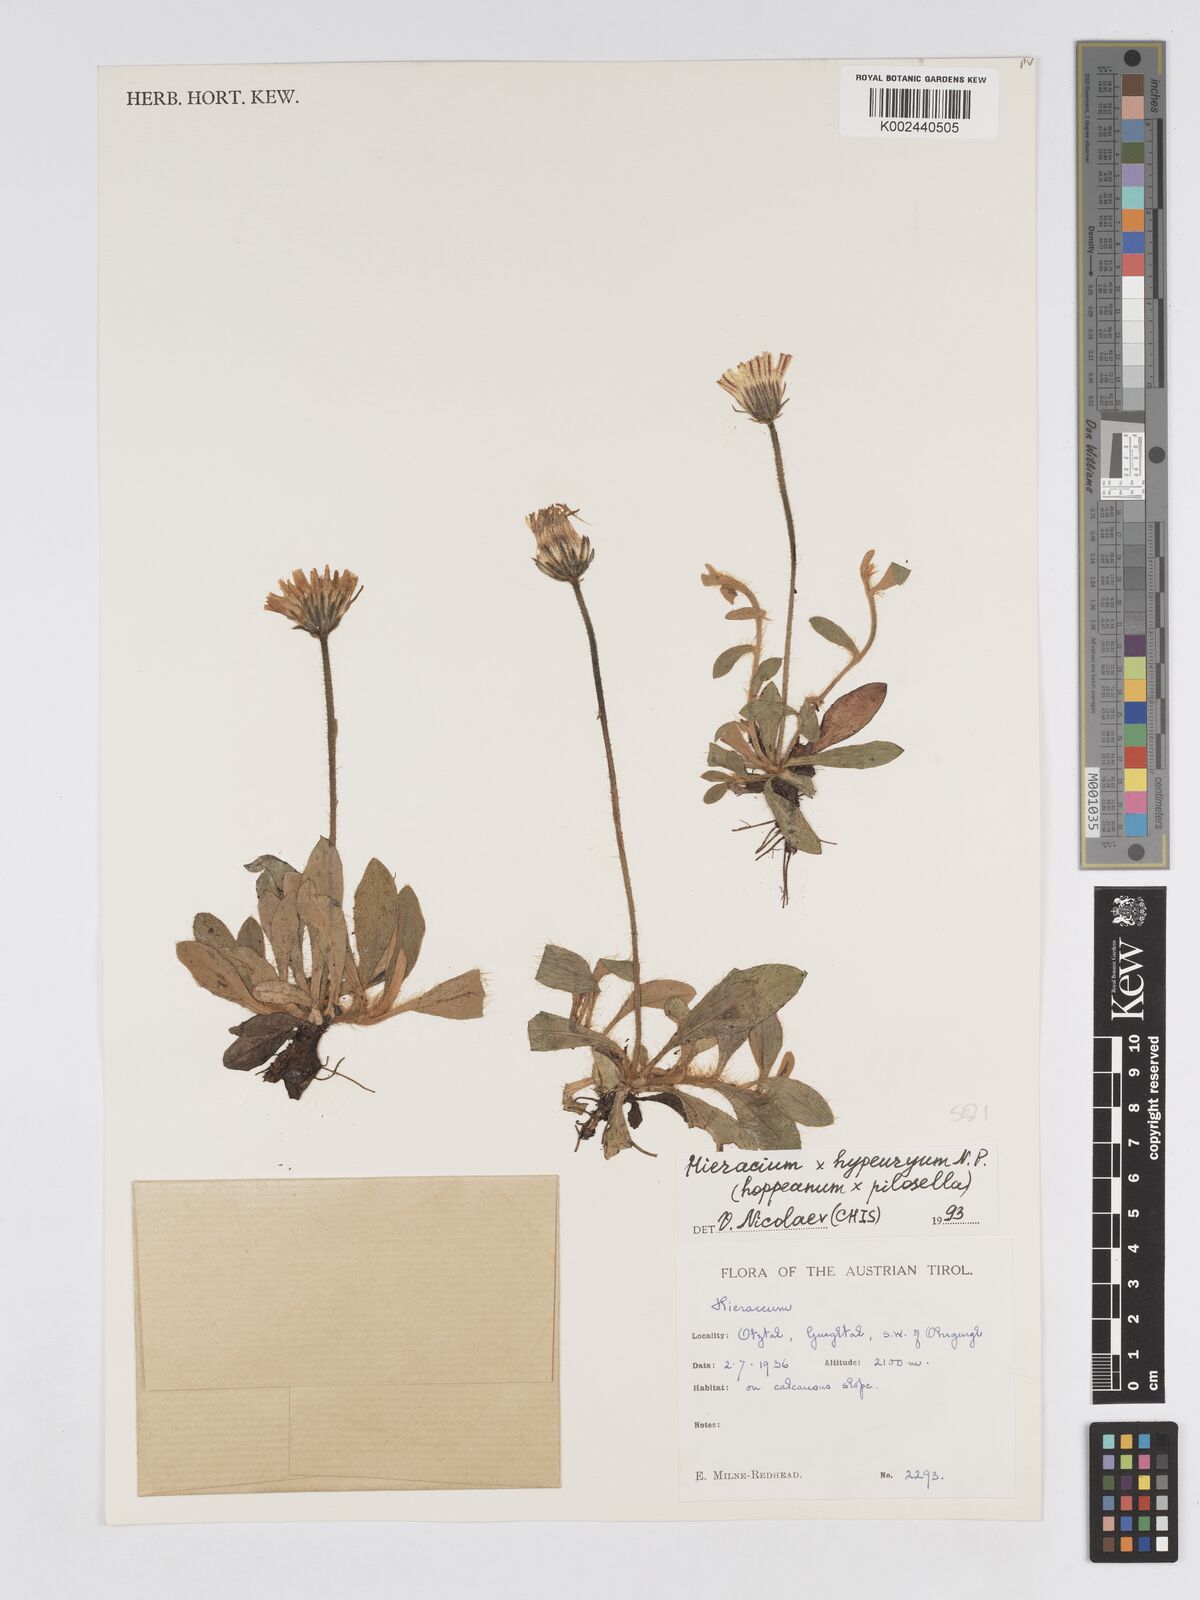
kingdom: Plantae
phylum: Tracheophyta
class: Magnoliopsida
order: Asterales
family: Asteraceae
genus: Pilosella
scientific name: Pilosella hypeurya
